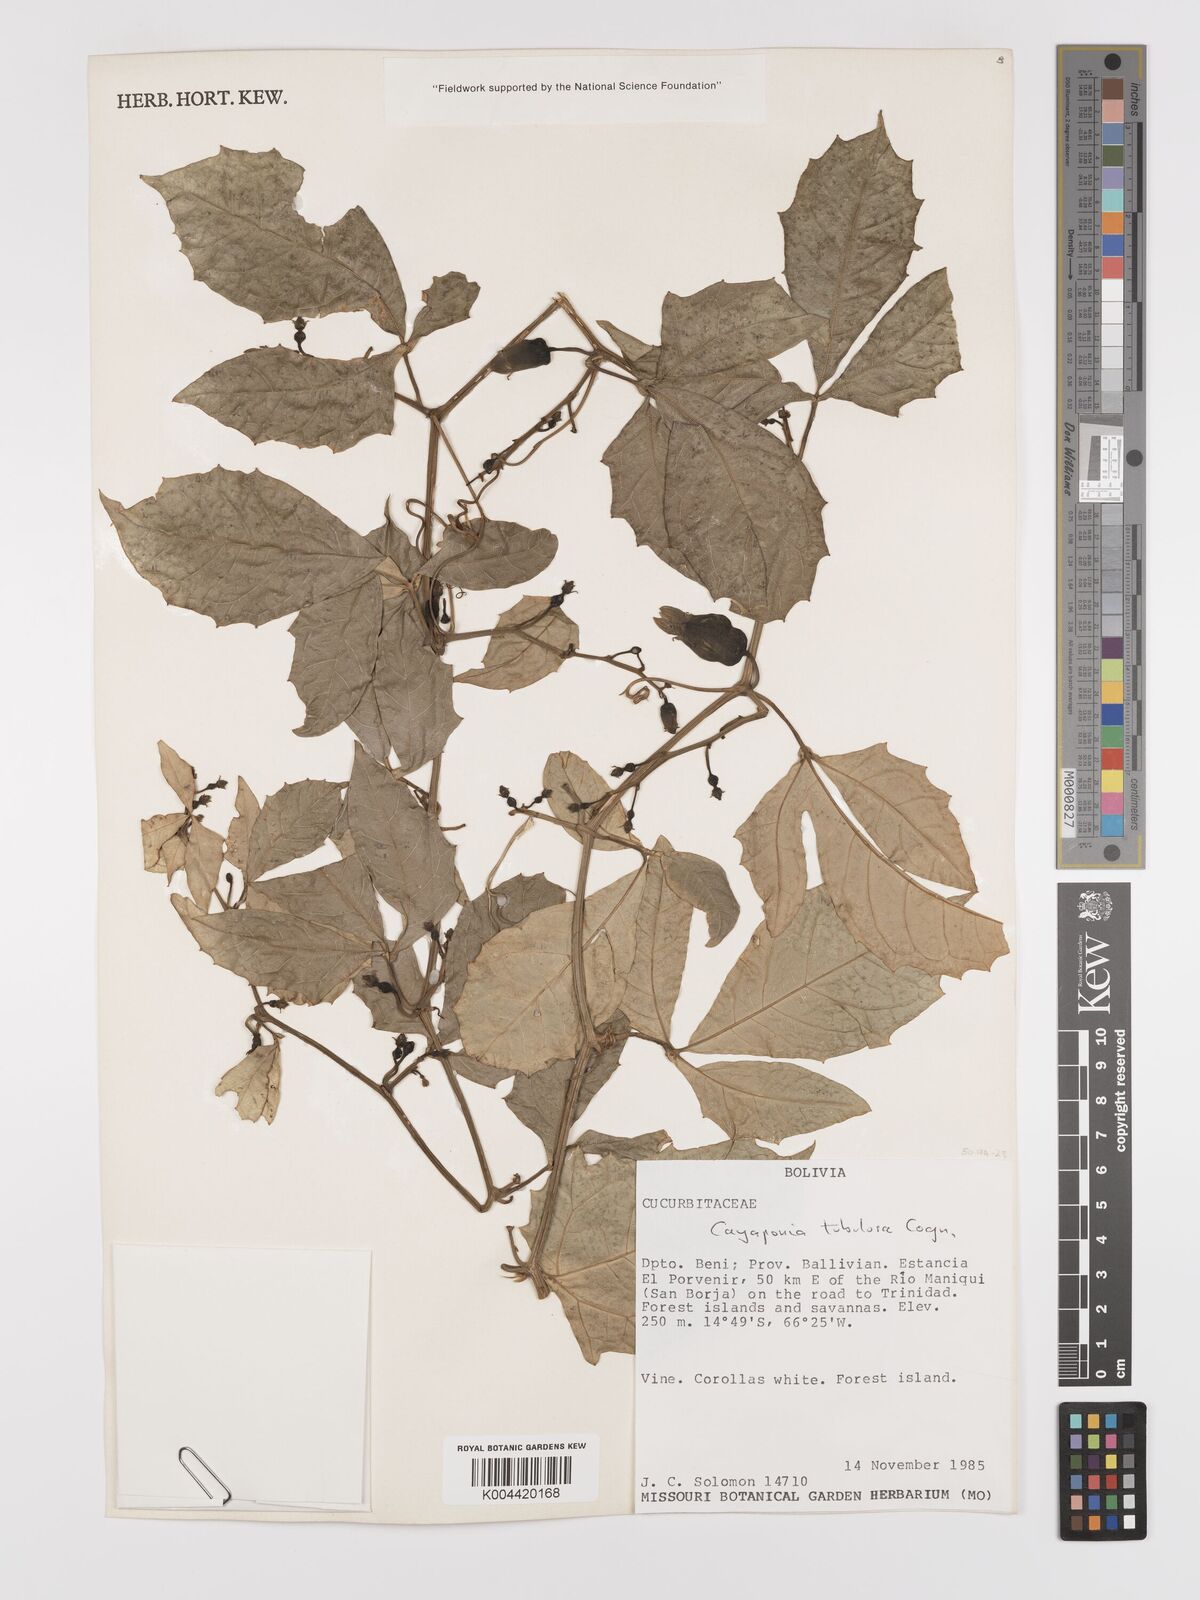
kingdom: Plantae
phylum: Tracheophyta
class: Magnoliopsida
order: Cucurbitales
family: Cucurbitaceae
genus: Cayaponia
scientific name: Cayaponia tubulosa
